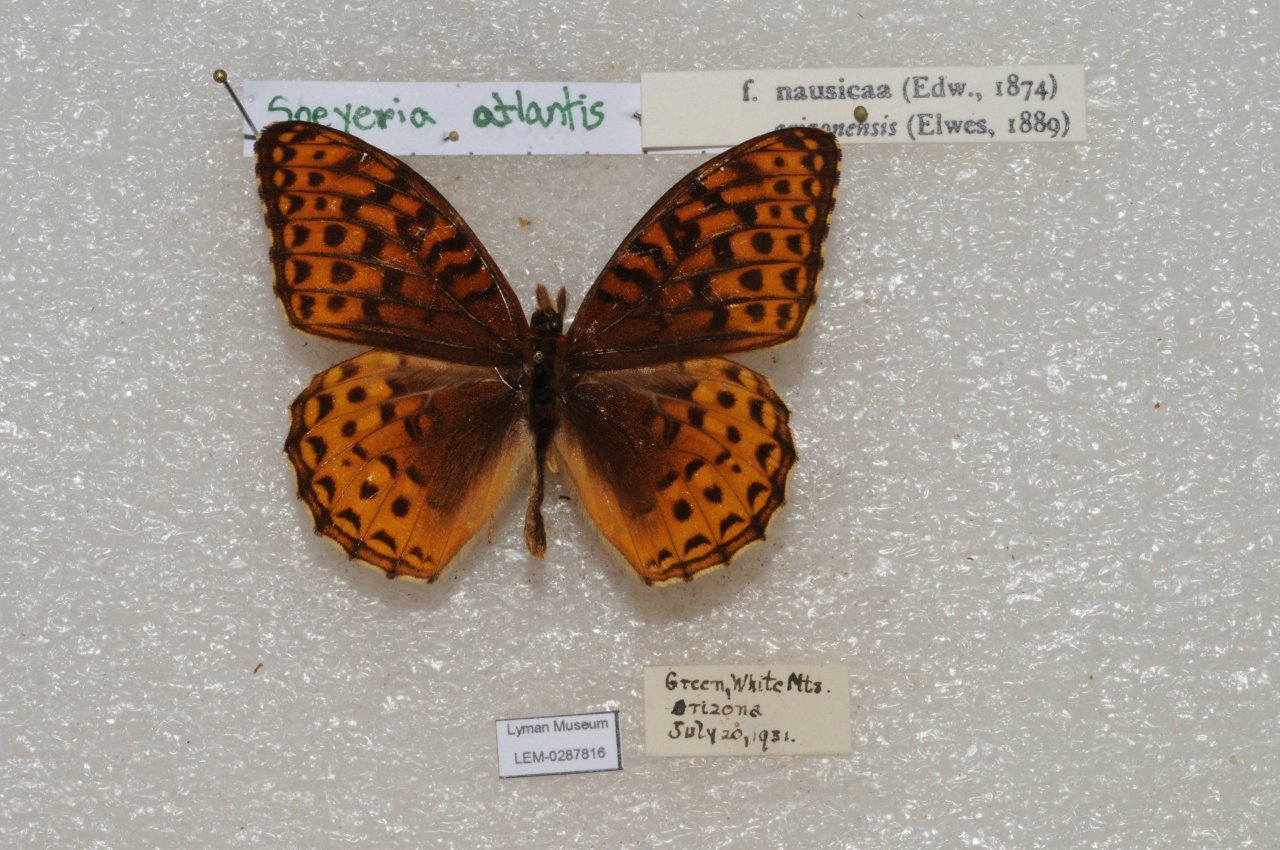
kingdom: Animalia
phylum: Arthropoda
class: Insecta
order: Lepidoptera
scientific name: Lepidoptera
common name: Butterflies
